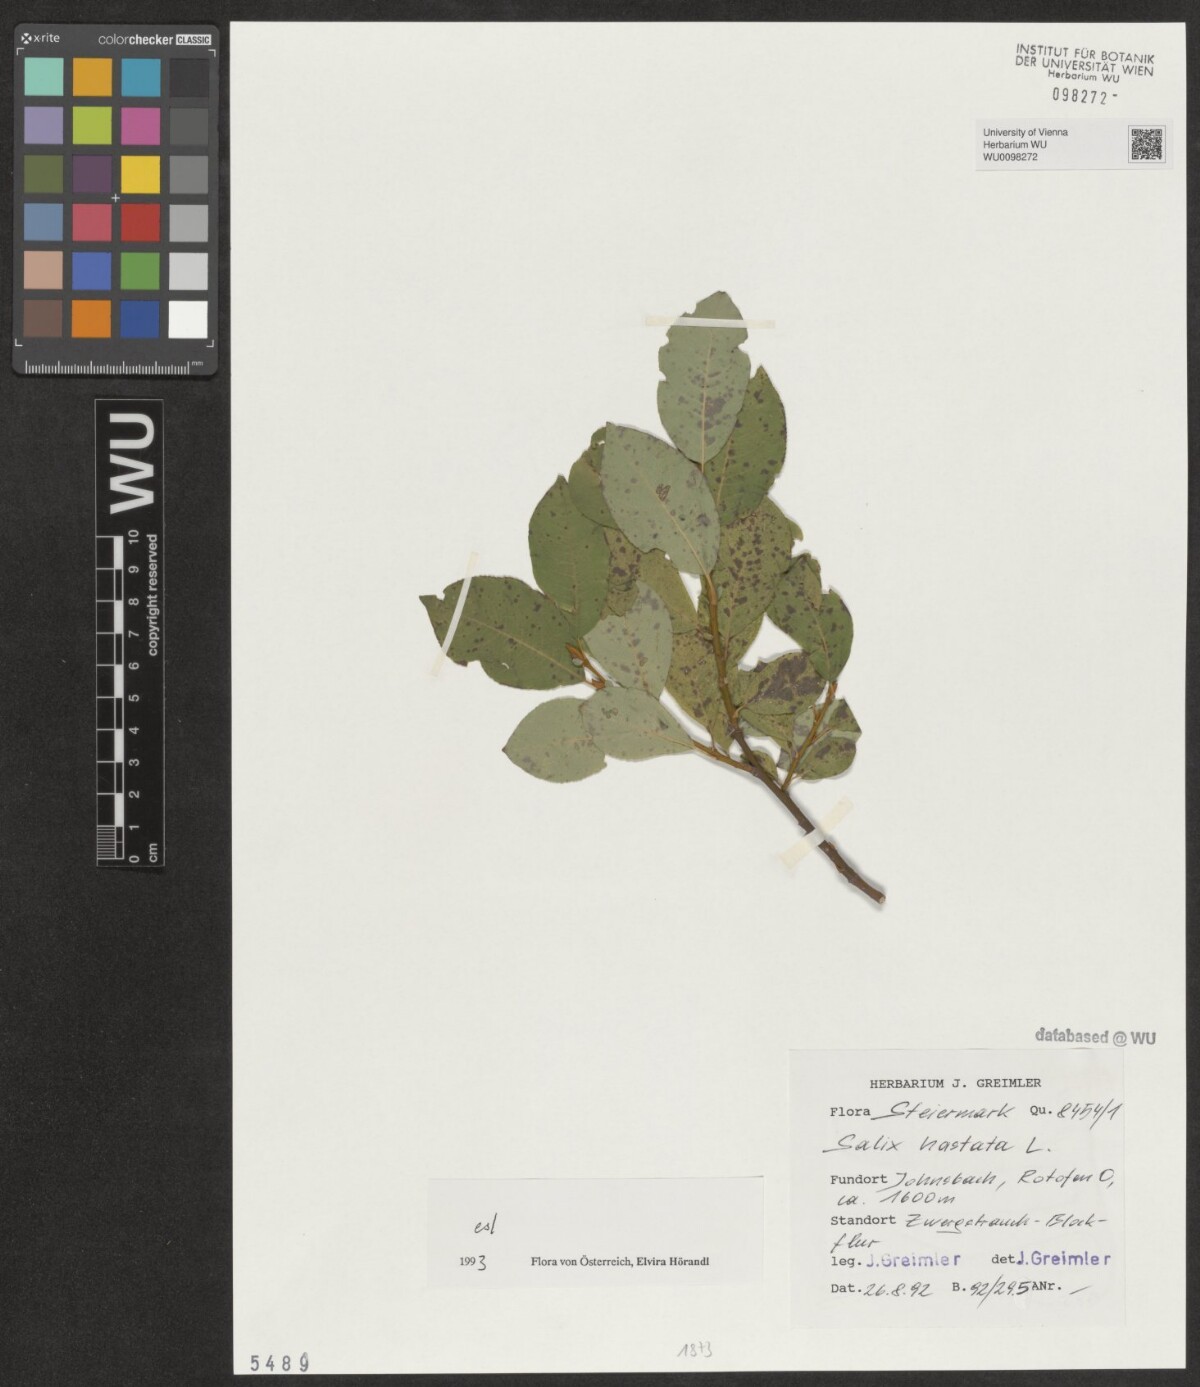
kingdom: Plantae
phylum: Tracheophyta
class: Magnoliopsida
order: Malpighiales
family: Salicaceae
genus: Salix
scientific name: Salix hastata
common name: Halberd willow
